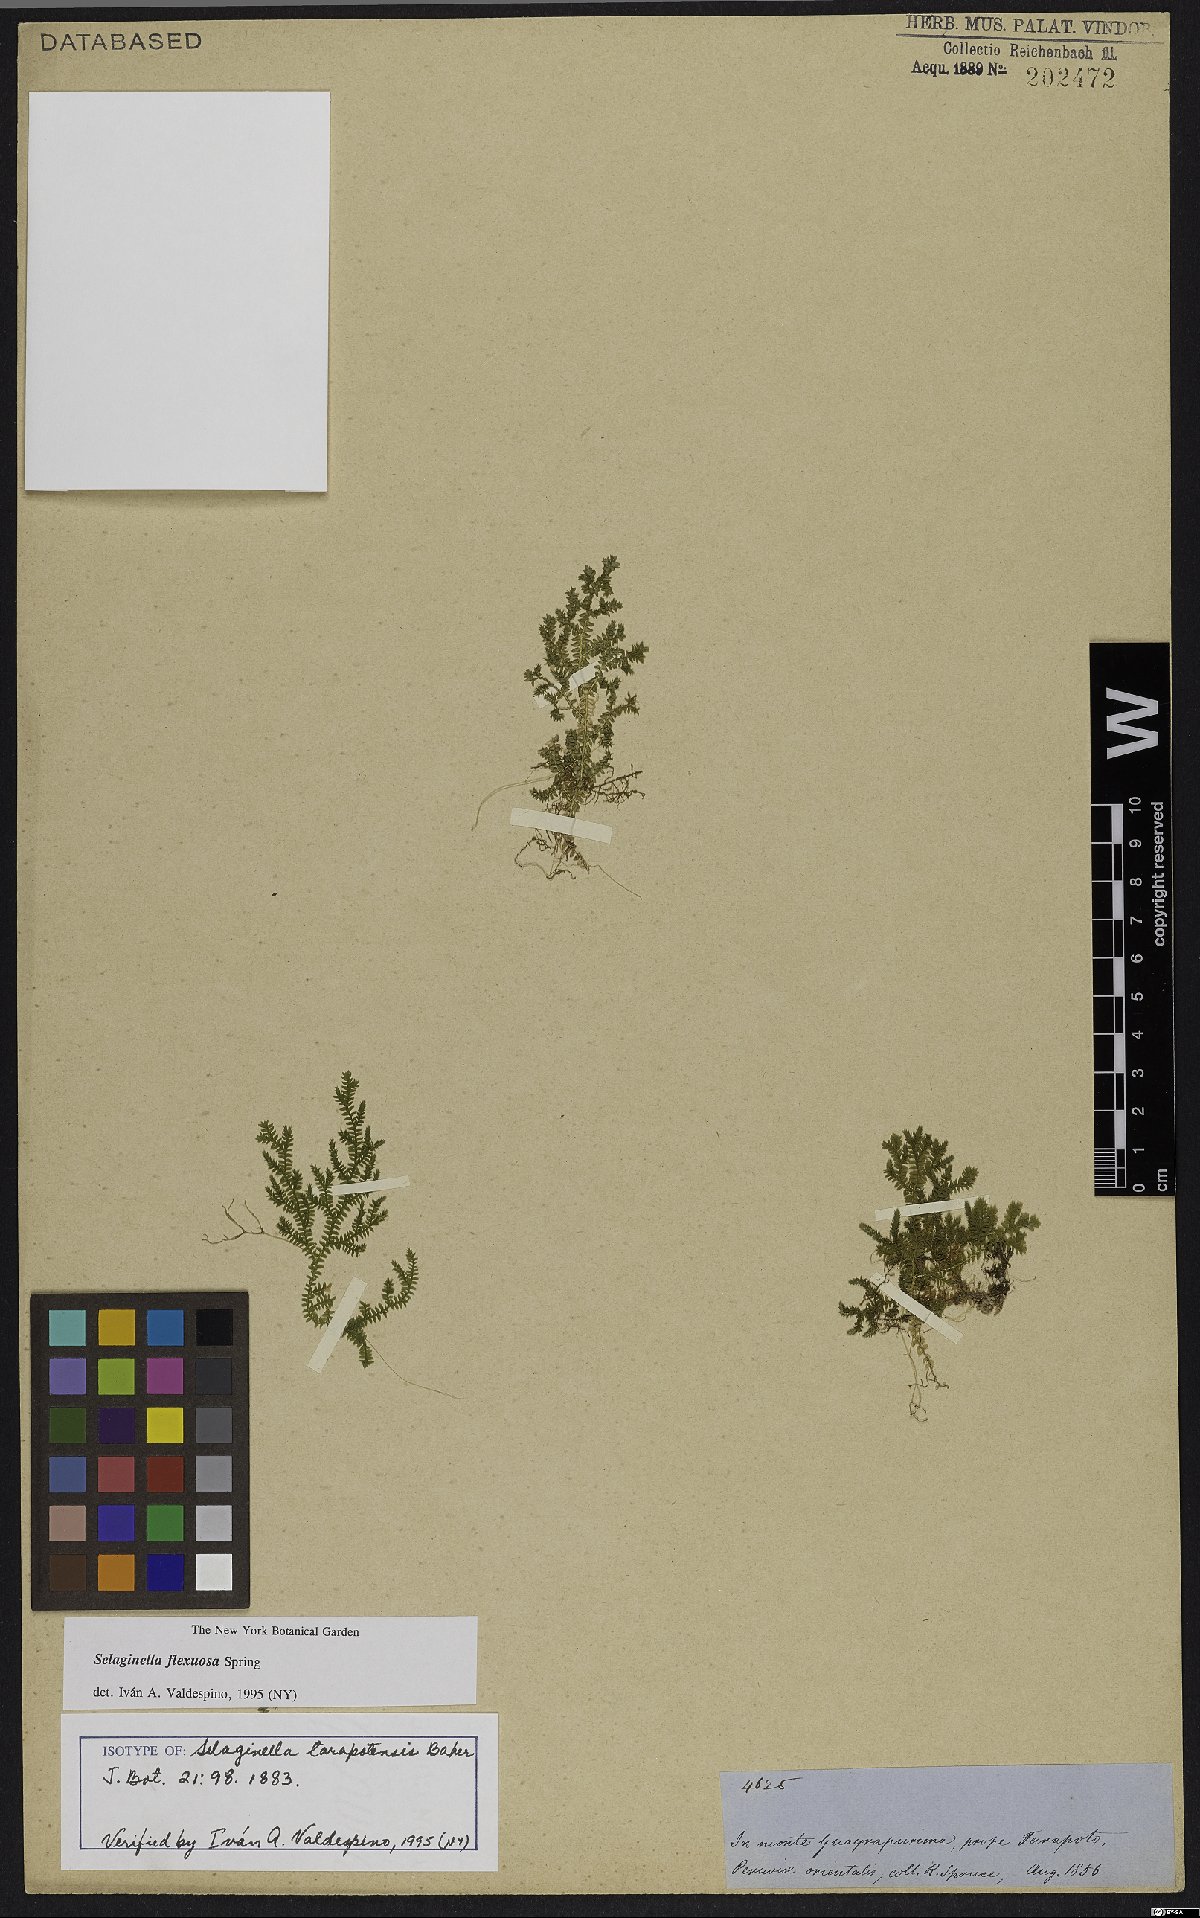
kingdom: Plantae
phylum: Tracheophyta
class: Lycopodiopsida
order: Selaginellales
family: Selaginellaceae
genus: Selaginella
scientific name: Selaginella flexuosa
